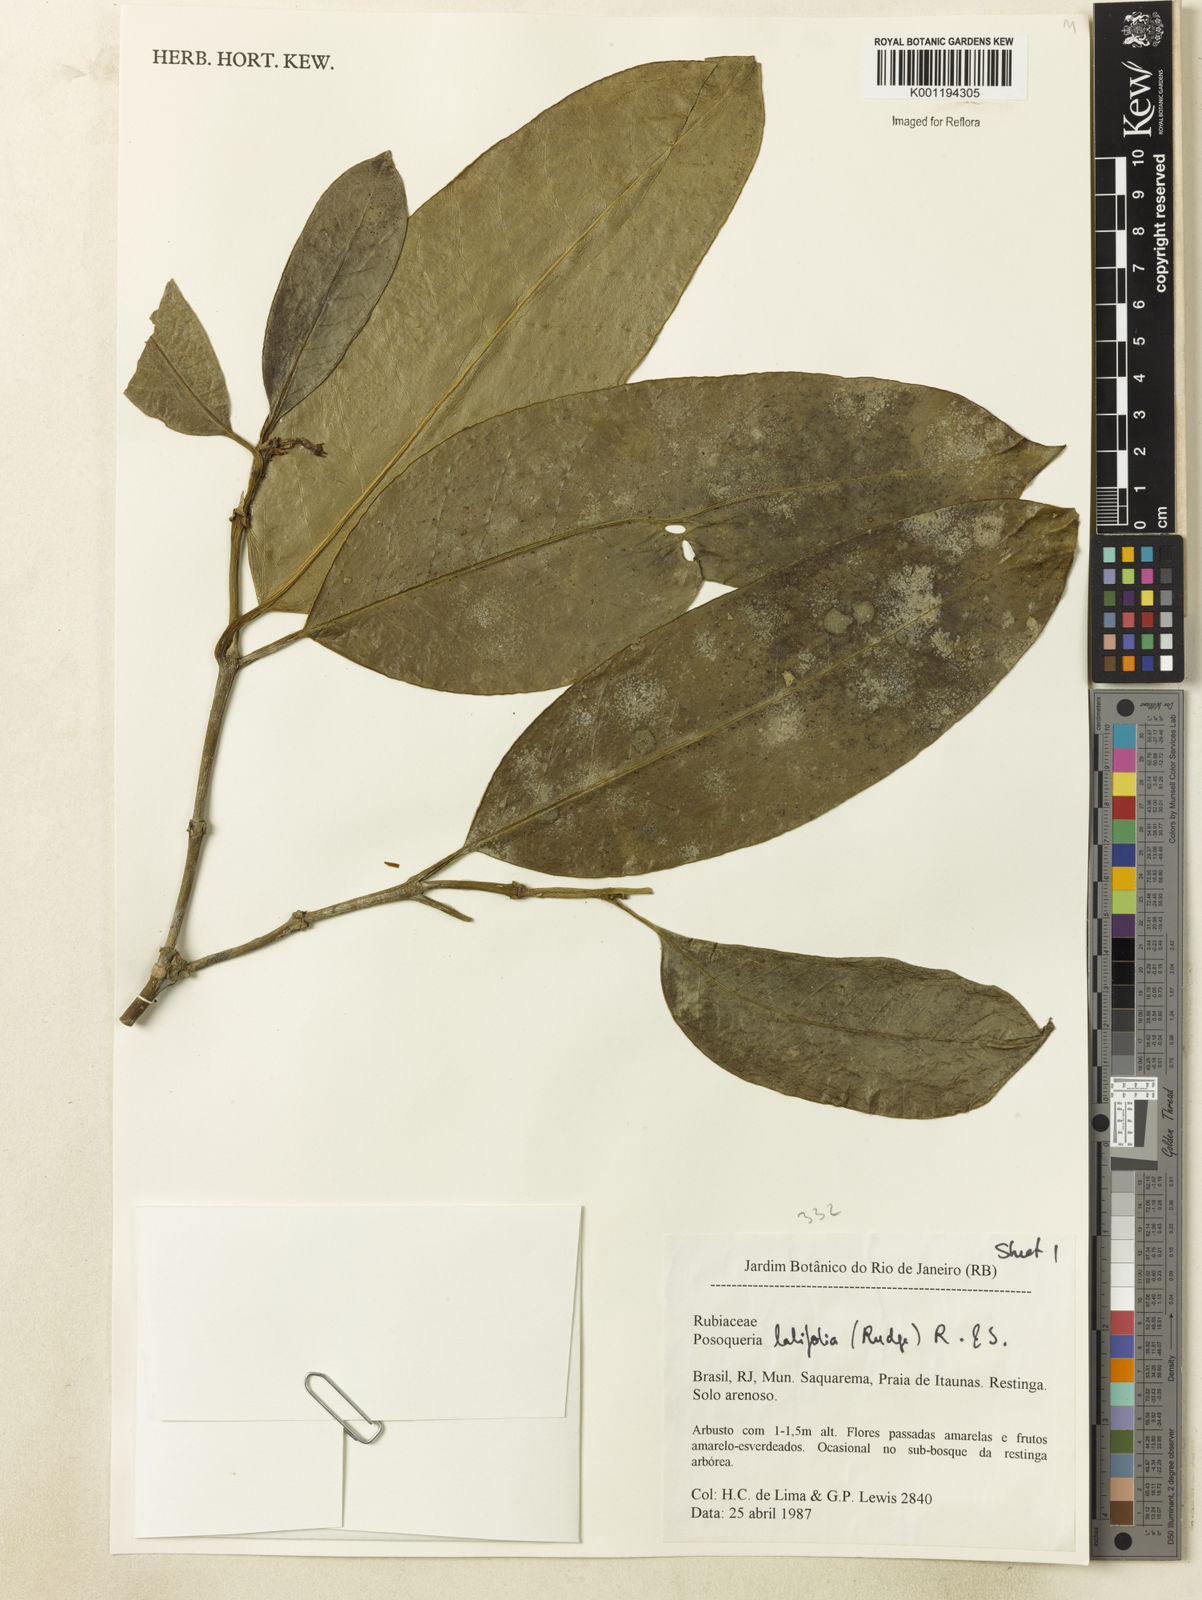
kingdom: Plantae
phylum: Tracheophyta
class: Magnoliopsida
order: Gentianales
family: Rubiaceae
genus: Posoqueria
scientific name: Posoqueria latifolia
